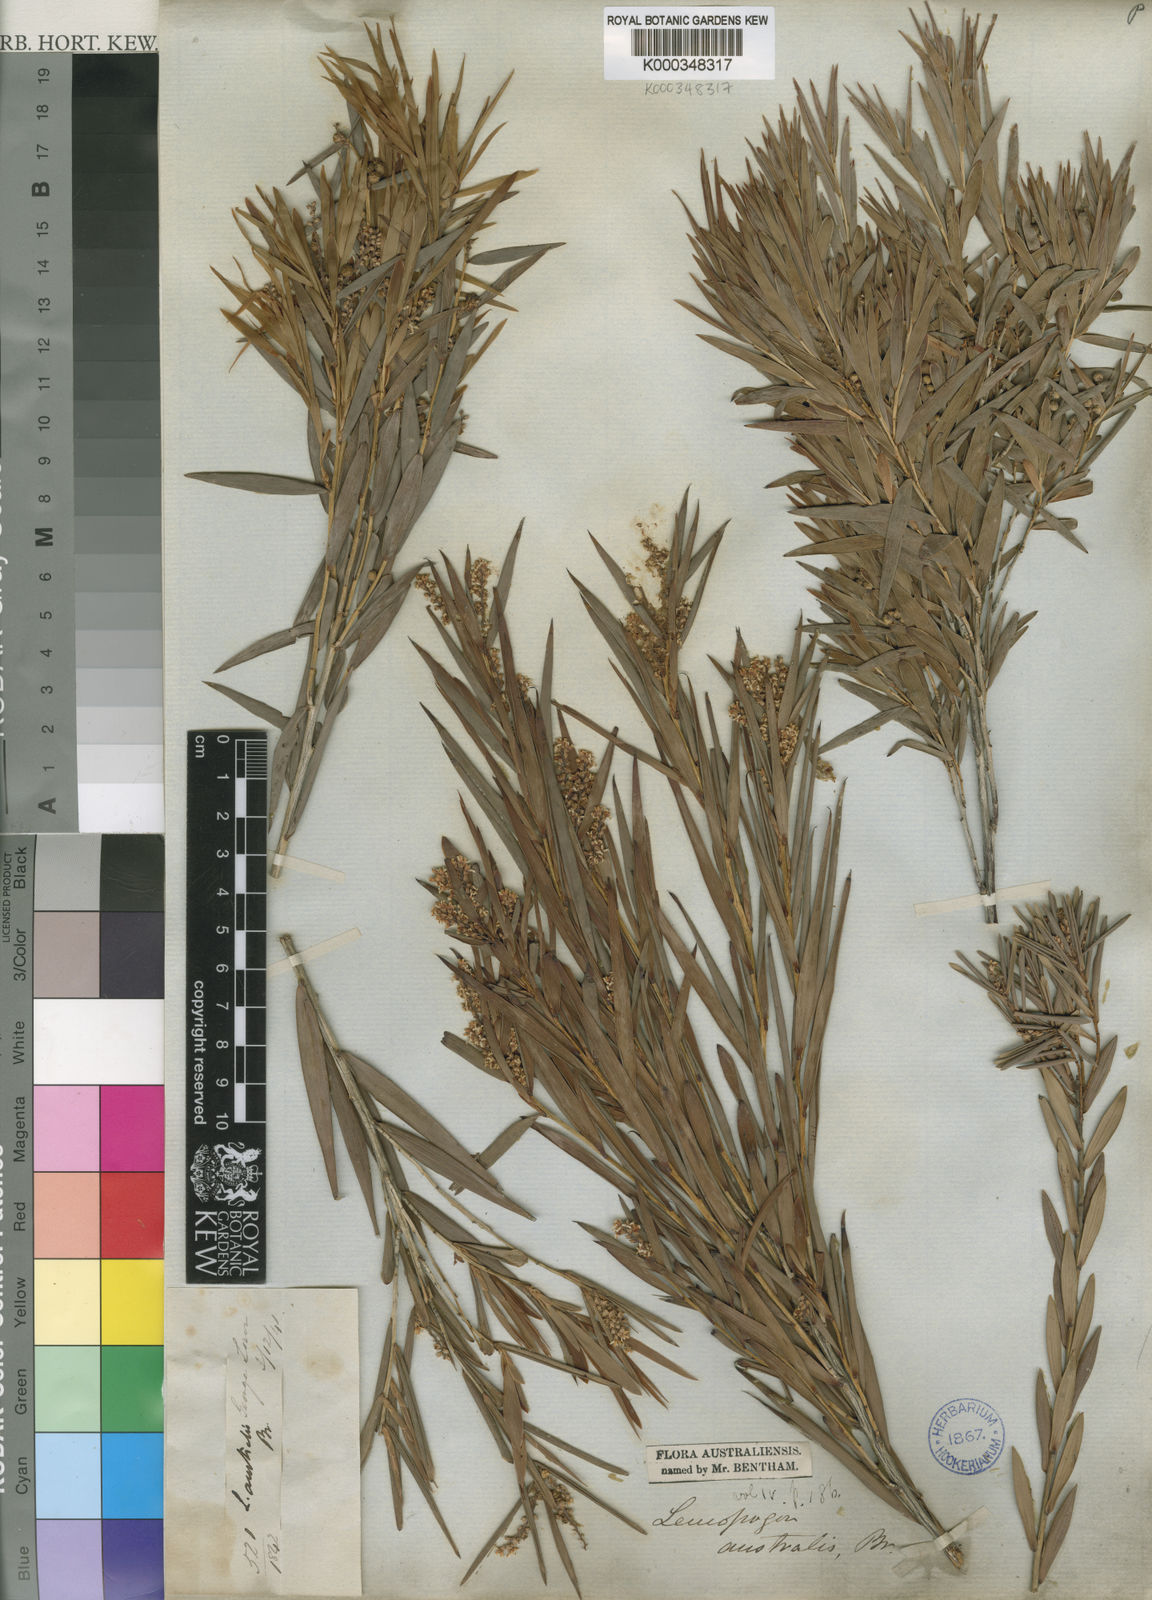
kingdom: Plantae
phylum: Tracheophyta
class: Magnoliopsida
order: Ericales
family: Ericaceae
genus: Leucopogon
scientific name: Leucopogon australis
